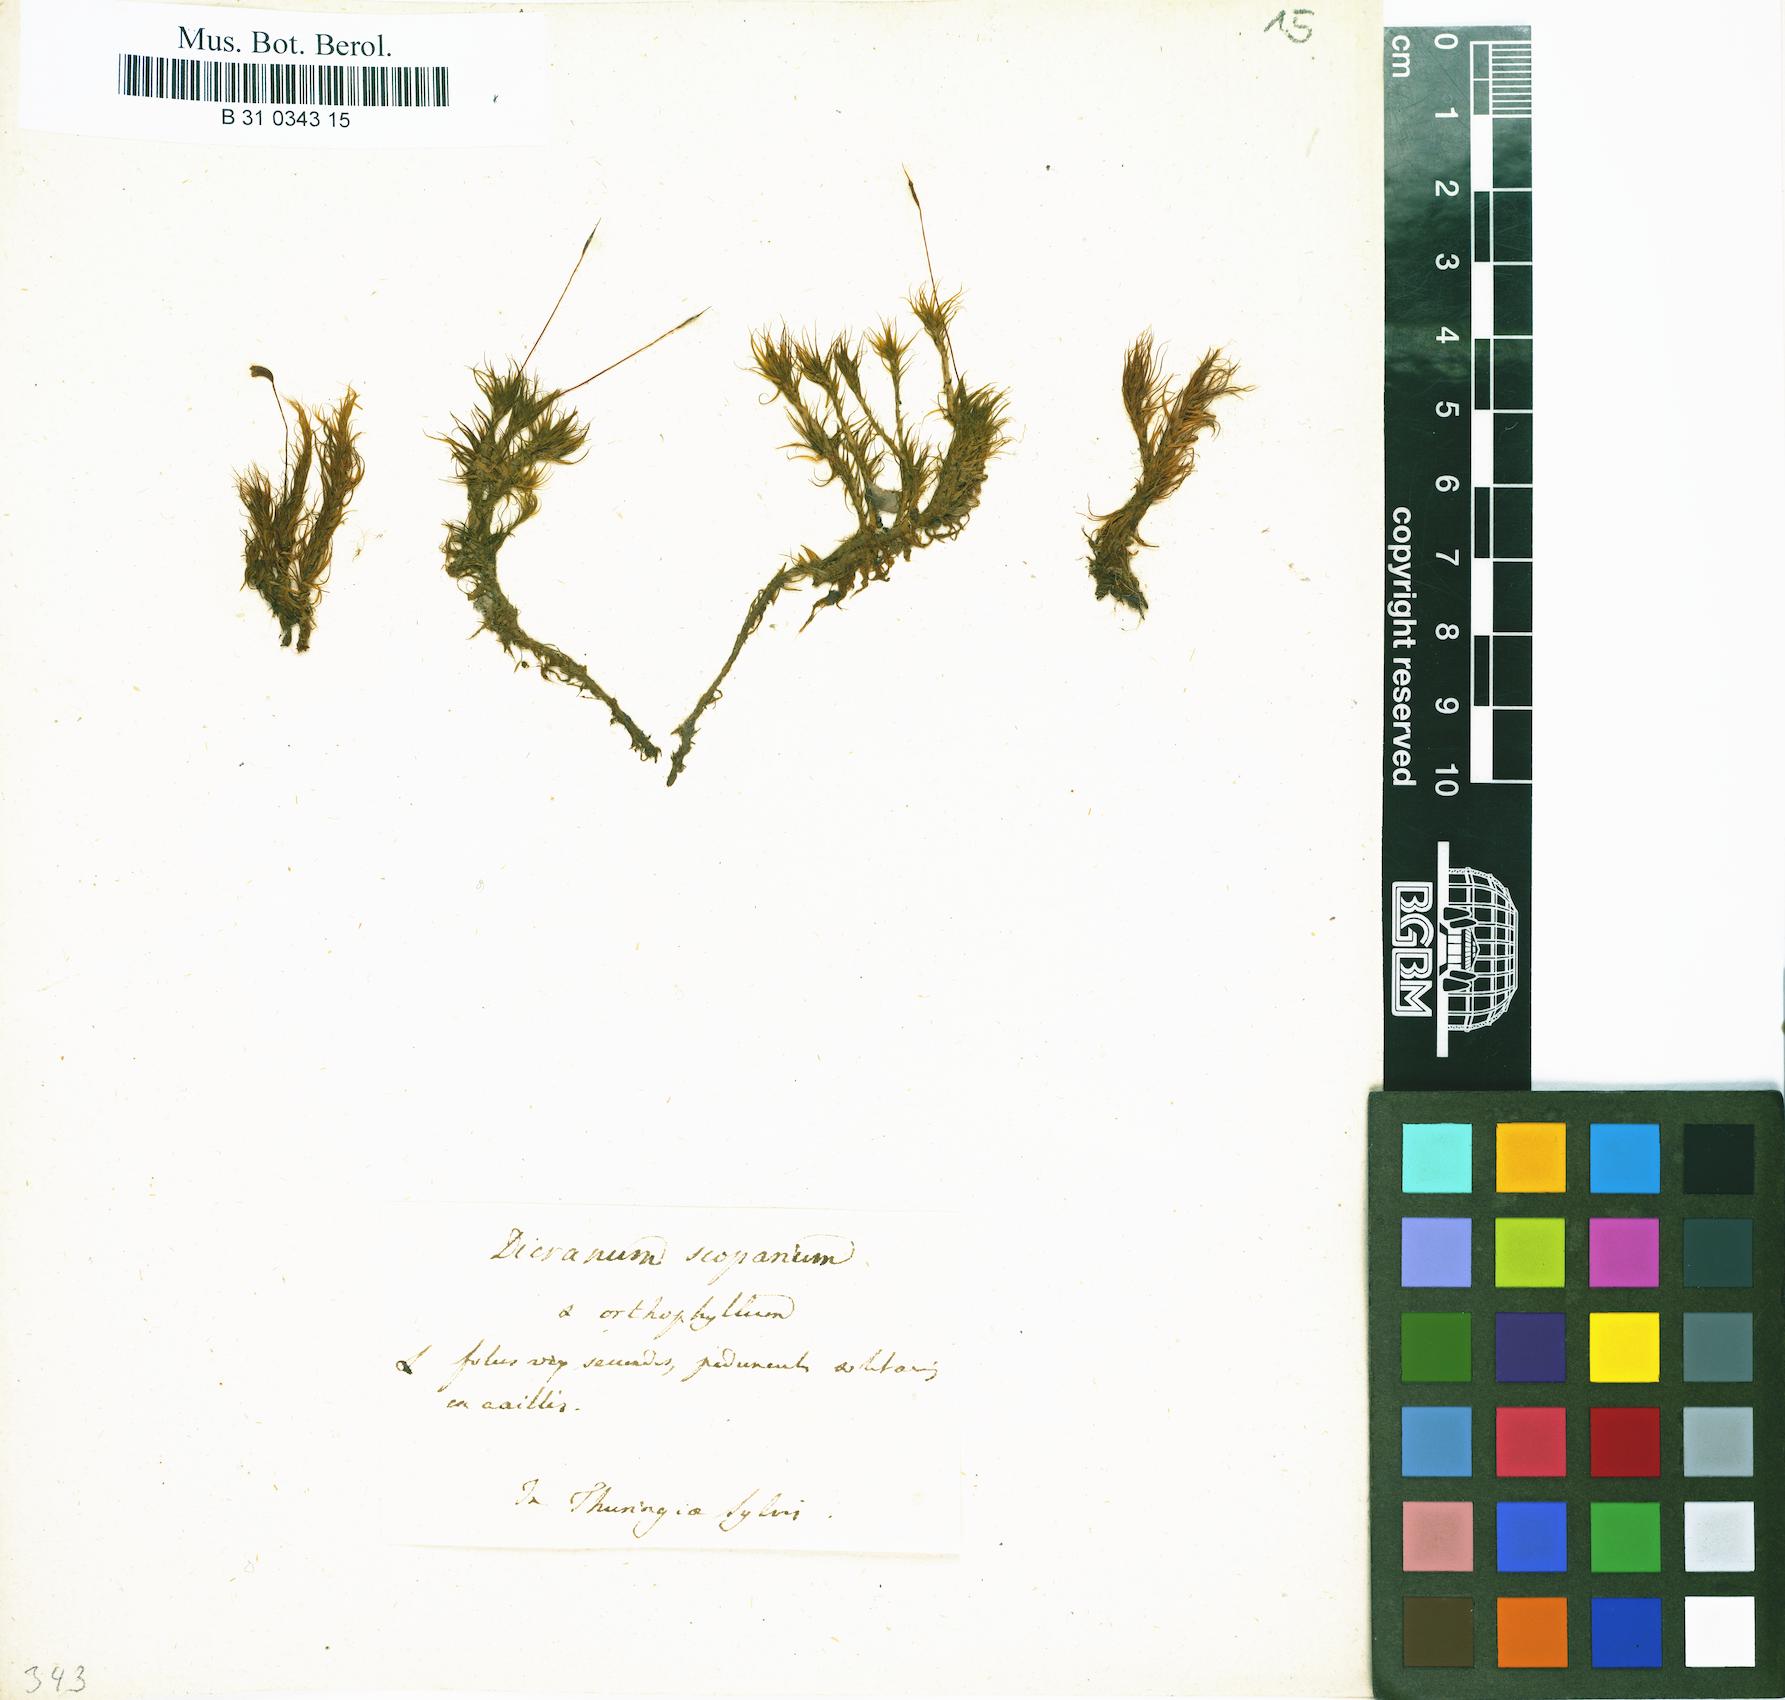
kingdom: Plantae
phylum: Bryophyta
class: Bryopsida
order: Dicranales
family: Dicranaceae
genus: Dicranum
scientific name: Dicranum scoparium
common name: Broom fork-moss
